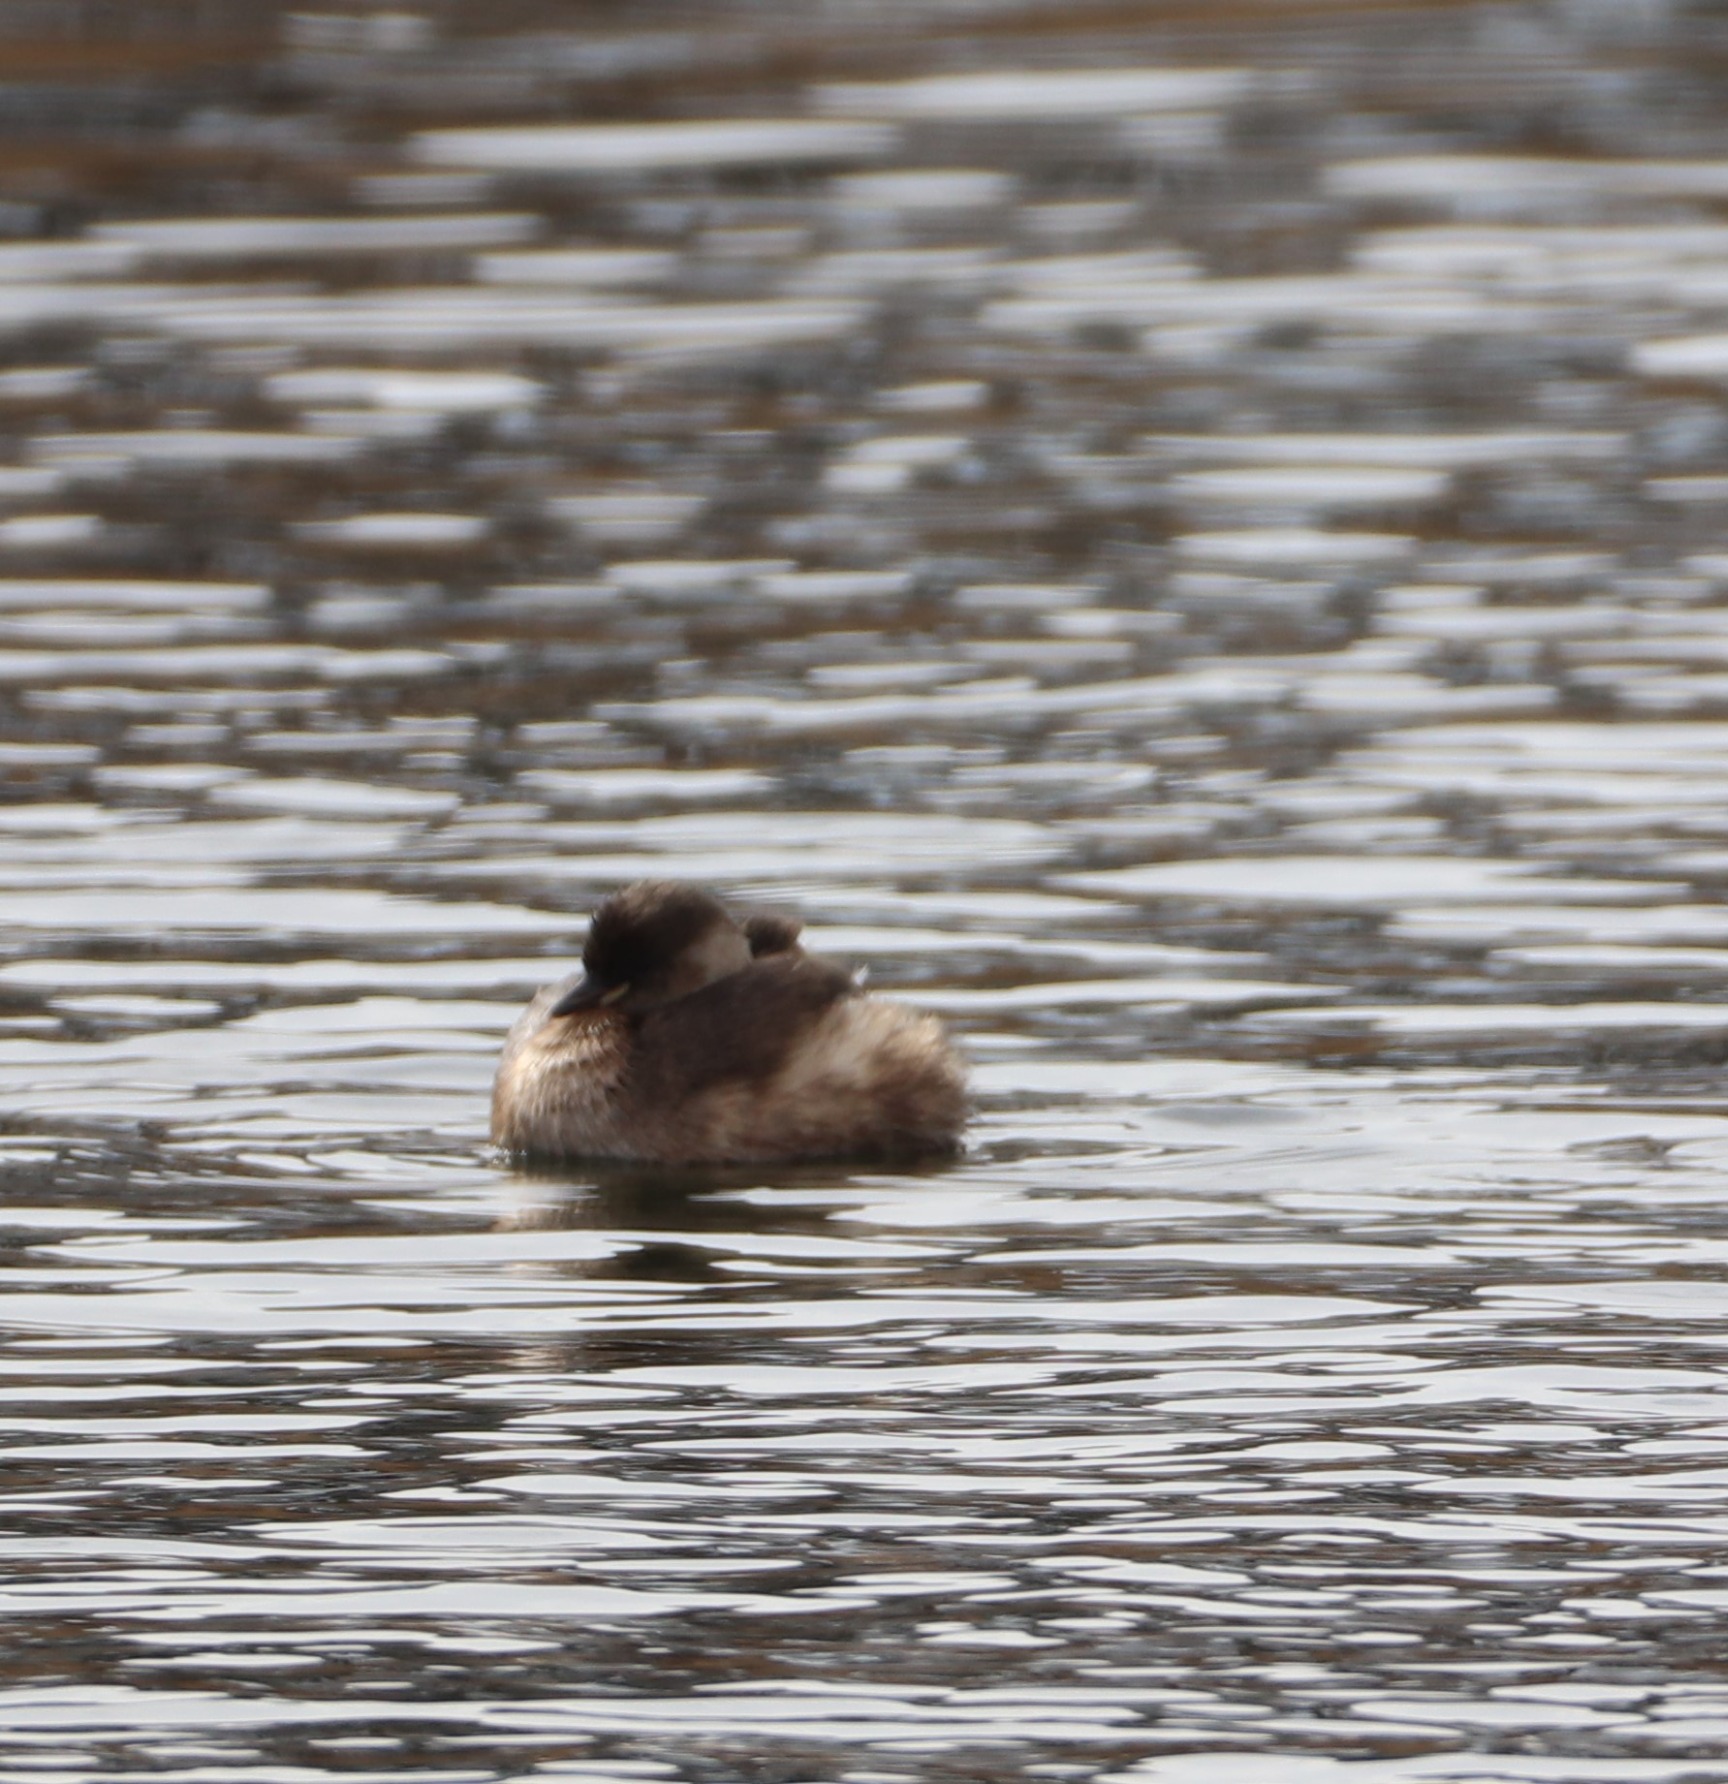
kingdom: Animalia
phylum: Chordata
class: Aves
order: Podicipediformes
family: Podicipedidae
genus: Tachybaptus
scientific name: Tachybaptus ruficollis
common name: Lille lappedykker
